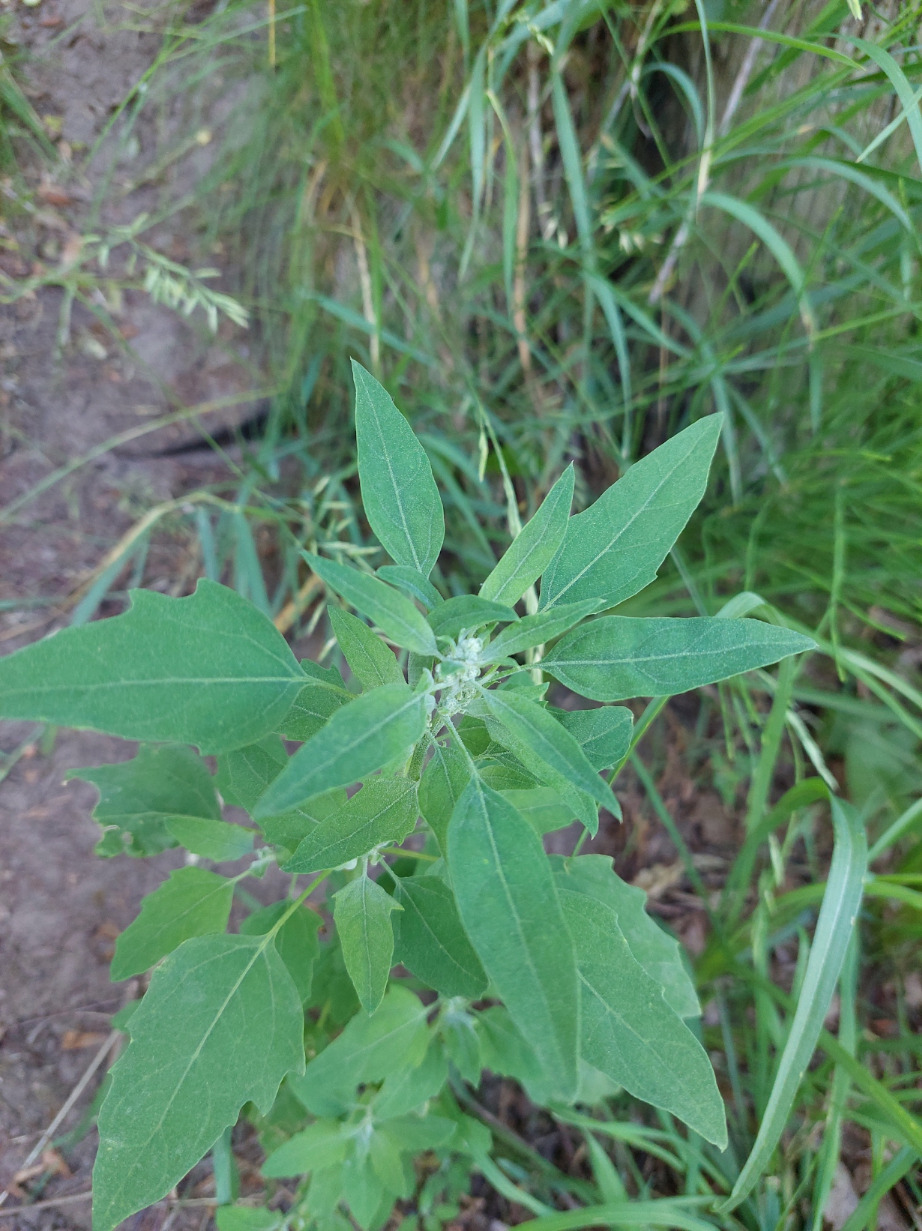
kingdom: Plantae
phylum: Tracheophyta
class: Magnoliopsida
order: Caryophyllales
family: Amaranthaceae
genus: Chenopodium
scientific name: Chenopodium album
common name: Hvidmelet gåsefod
